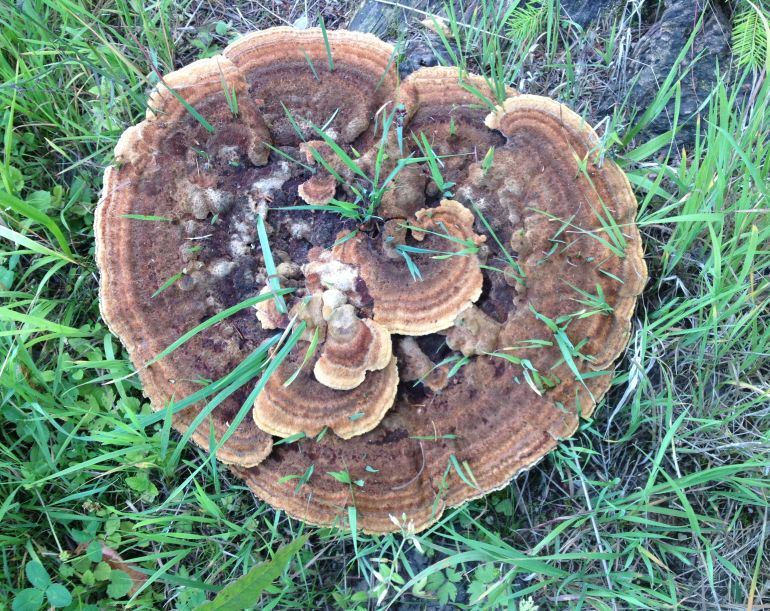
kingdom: Fungi
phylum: Basidiomycota
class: Agaricomycetes
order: Polyporales
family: Laetiporaceae
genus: Phaeolus
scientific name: Phaeolus schweinitzii
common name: brunporesvamp
